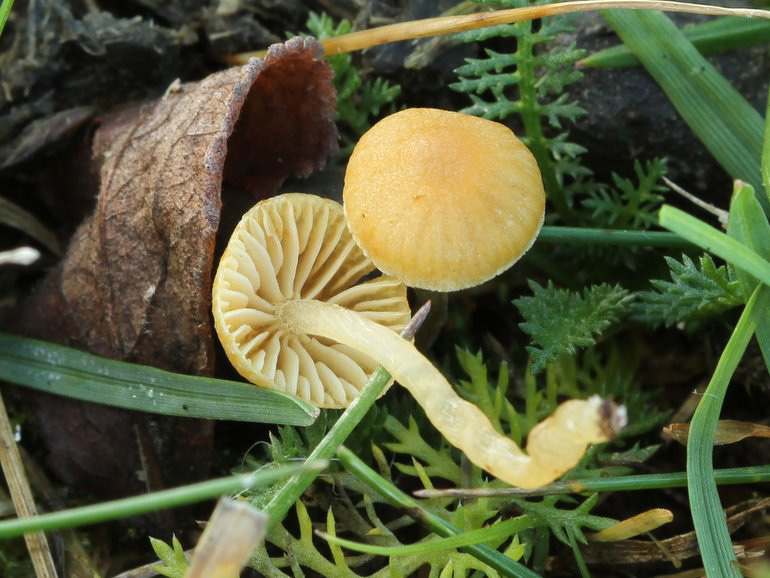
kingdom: Fungi
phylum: Basidiomycota
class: Agaricomycetes
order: Agaricales
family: Hymenogastraceae
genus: Galerina
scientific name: Galerina graminea
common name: plæne-hjelmhat
